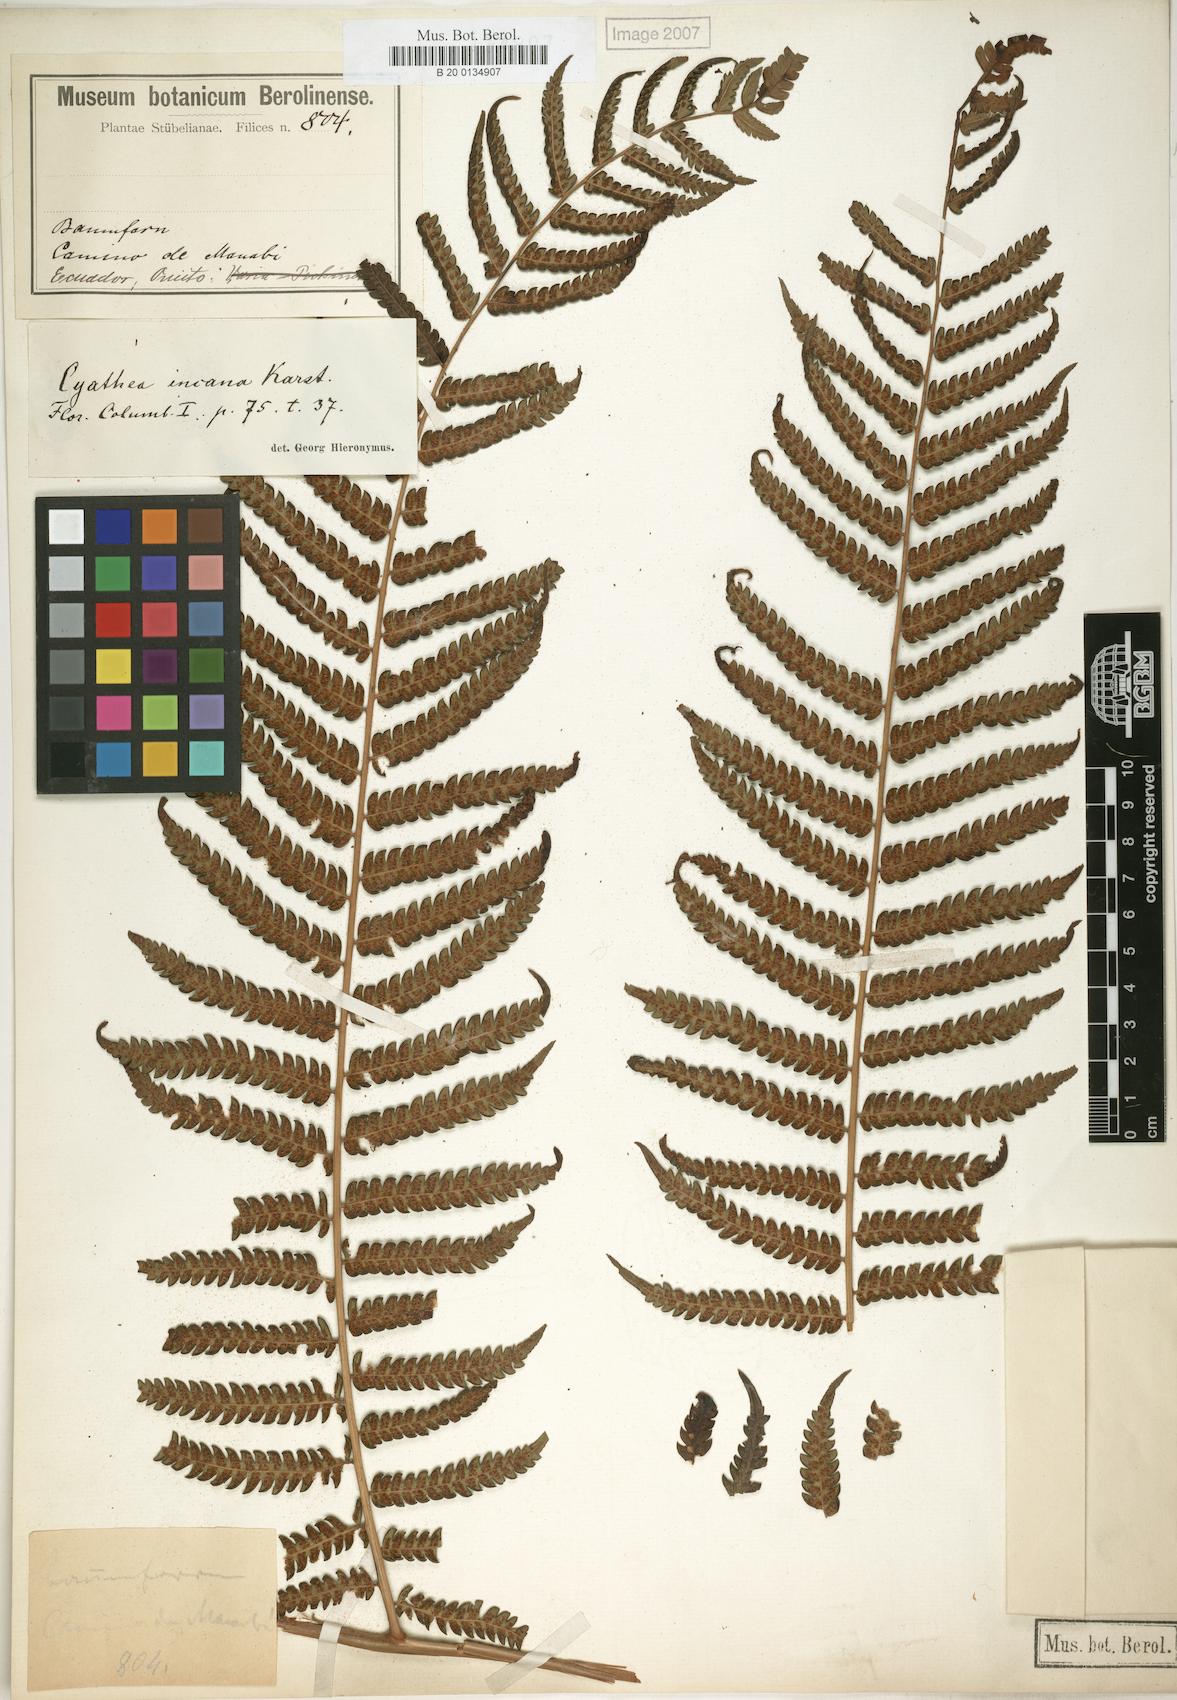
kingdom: Plantae
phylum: Tracheophyta
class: Polypodiopsida
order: Cyatheales
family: Cyatheaceae
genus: Alsophila
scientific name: Alsophila incana
